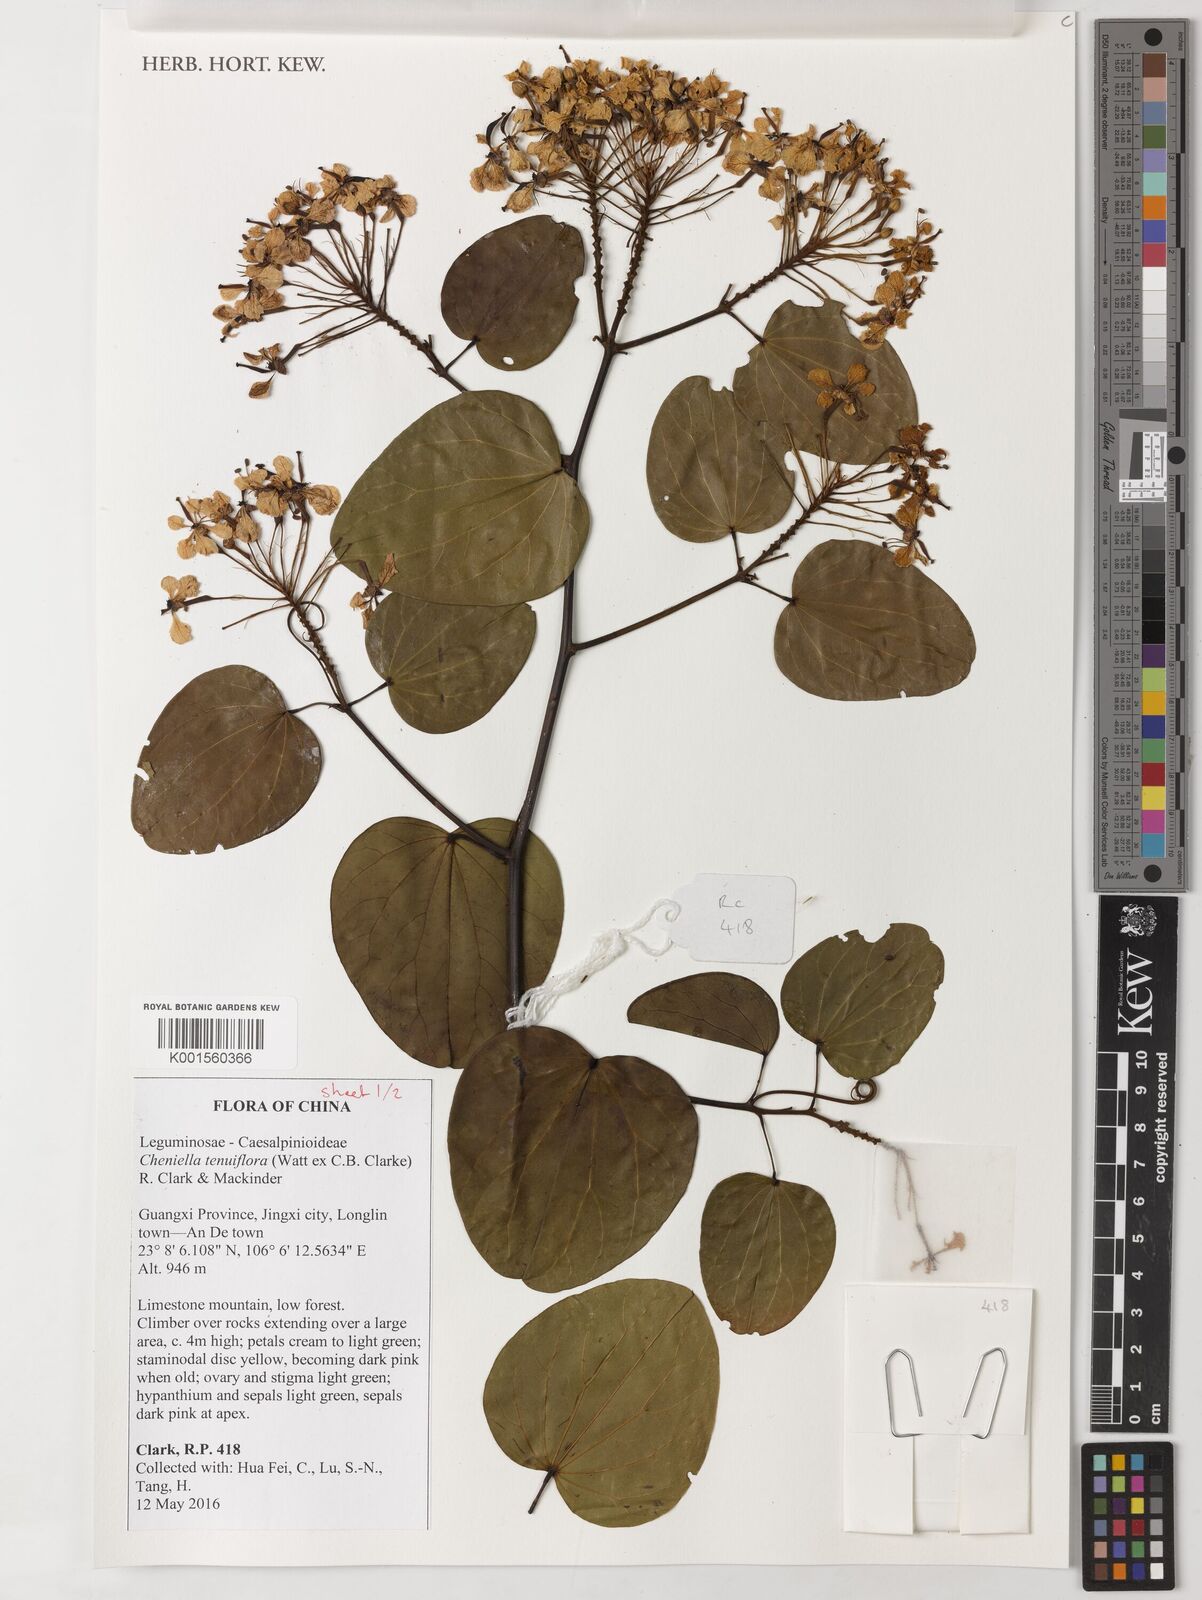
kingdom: Plantae
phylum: Tracheophyta
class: Magnoliopsida
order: Fabales
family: Fabaceae
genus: Cheniella
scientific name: Cheniella tenuiflora
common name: Bauhinia
